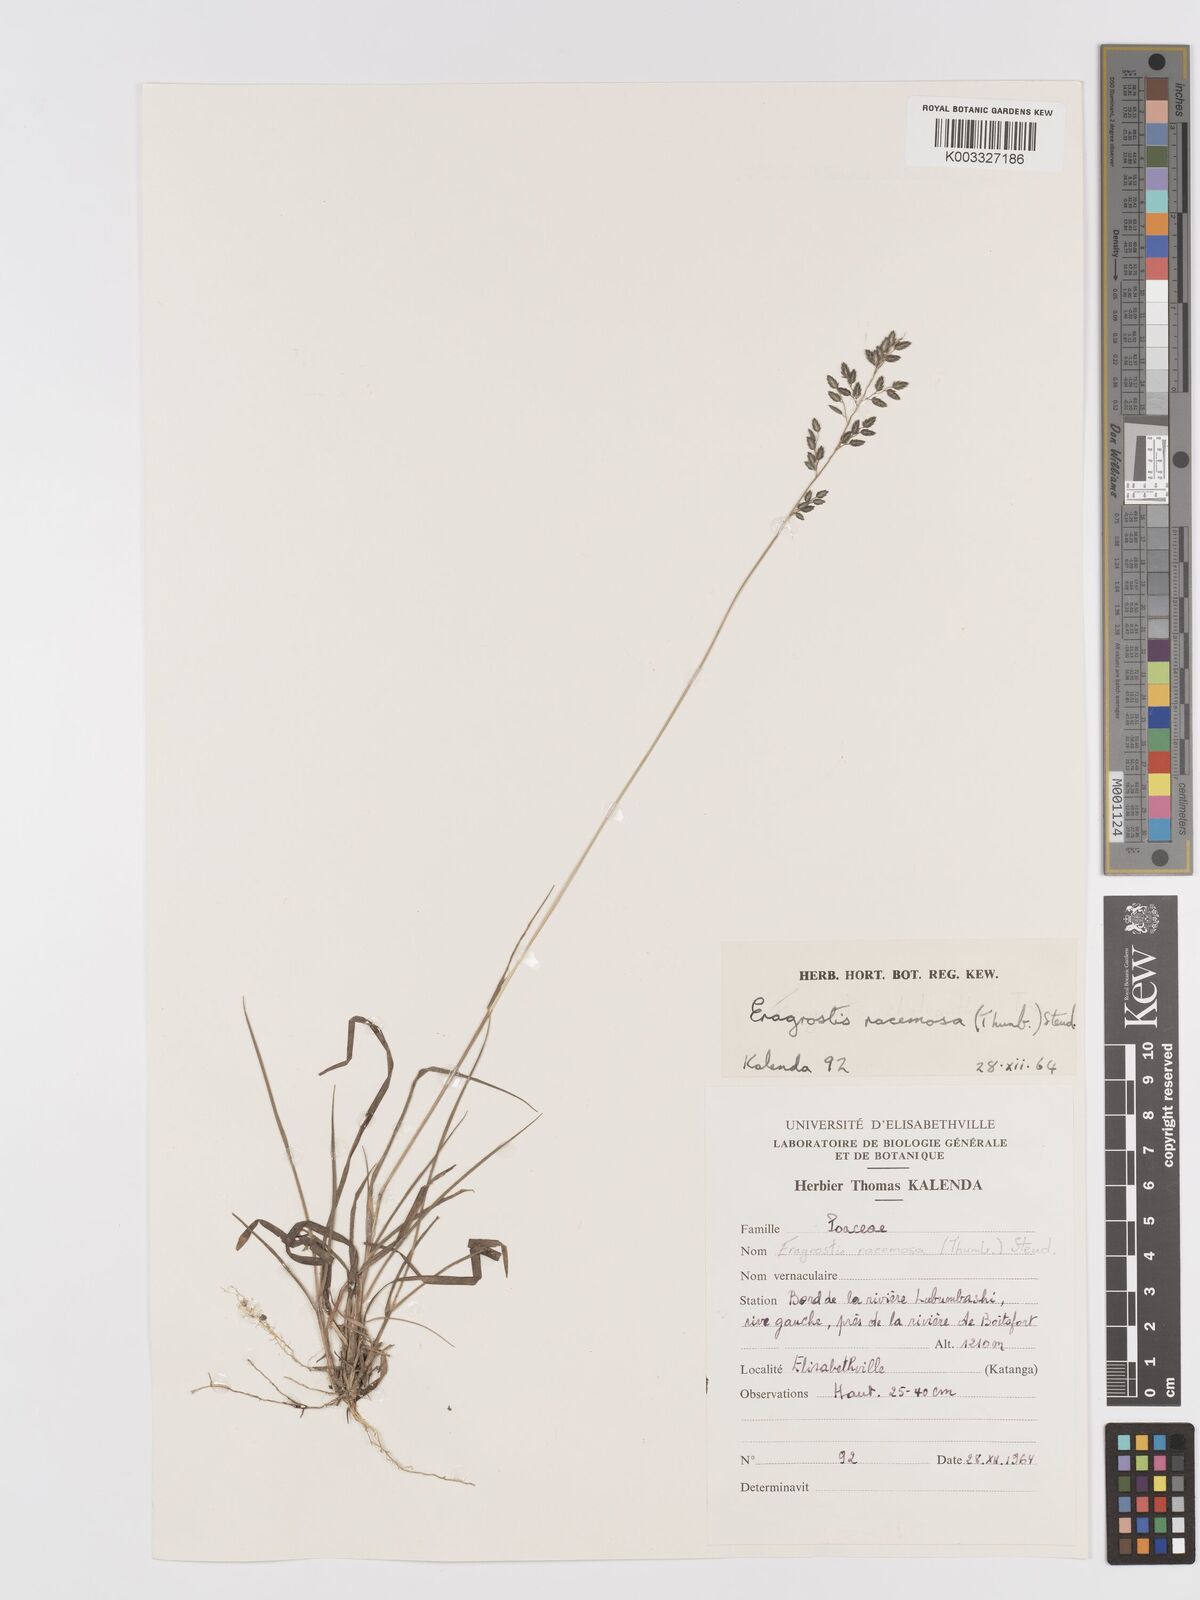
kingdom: Plantae
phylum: Tracheophyta
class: Liliopsida
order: Poales
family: Poaceae
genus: Eragrostis
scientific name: Eragrostis racemosa
